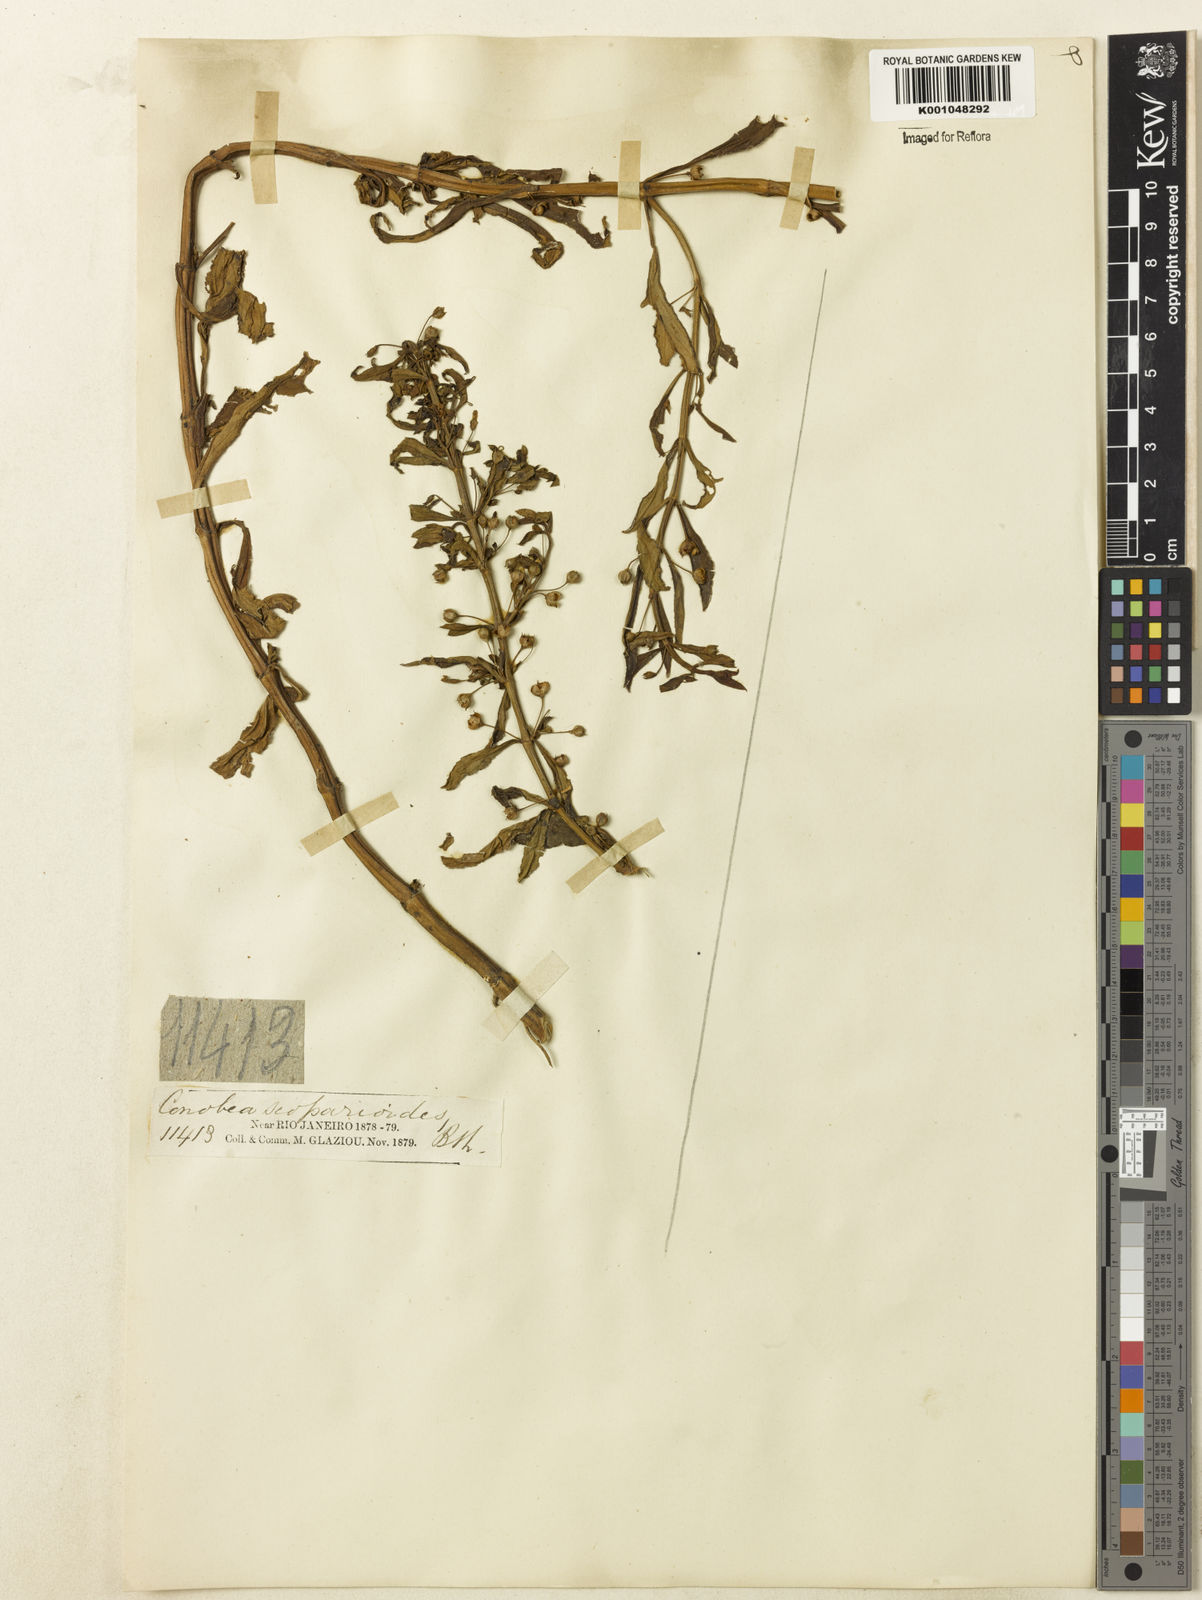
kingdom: Plantae
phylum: Tracheophyta
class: Magnoliopsida
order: Lamiales
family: Plantaginaceae
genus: Conobea
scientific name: Conobea scoparioides
